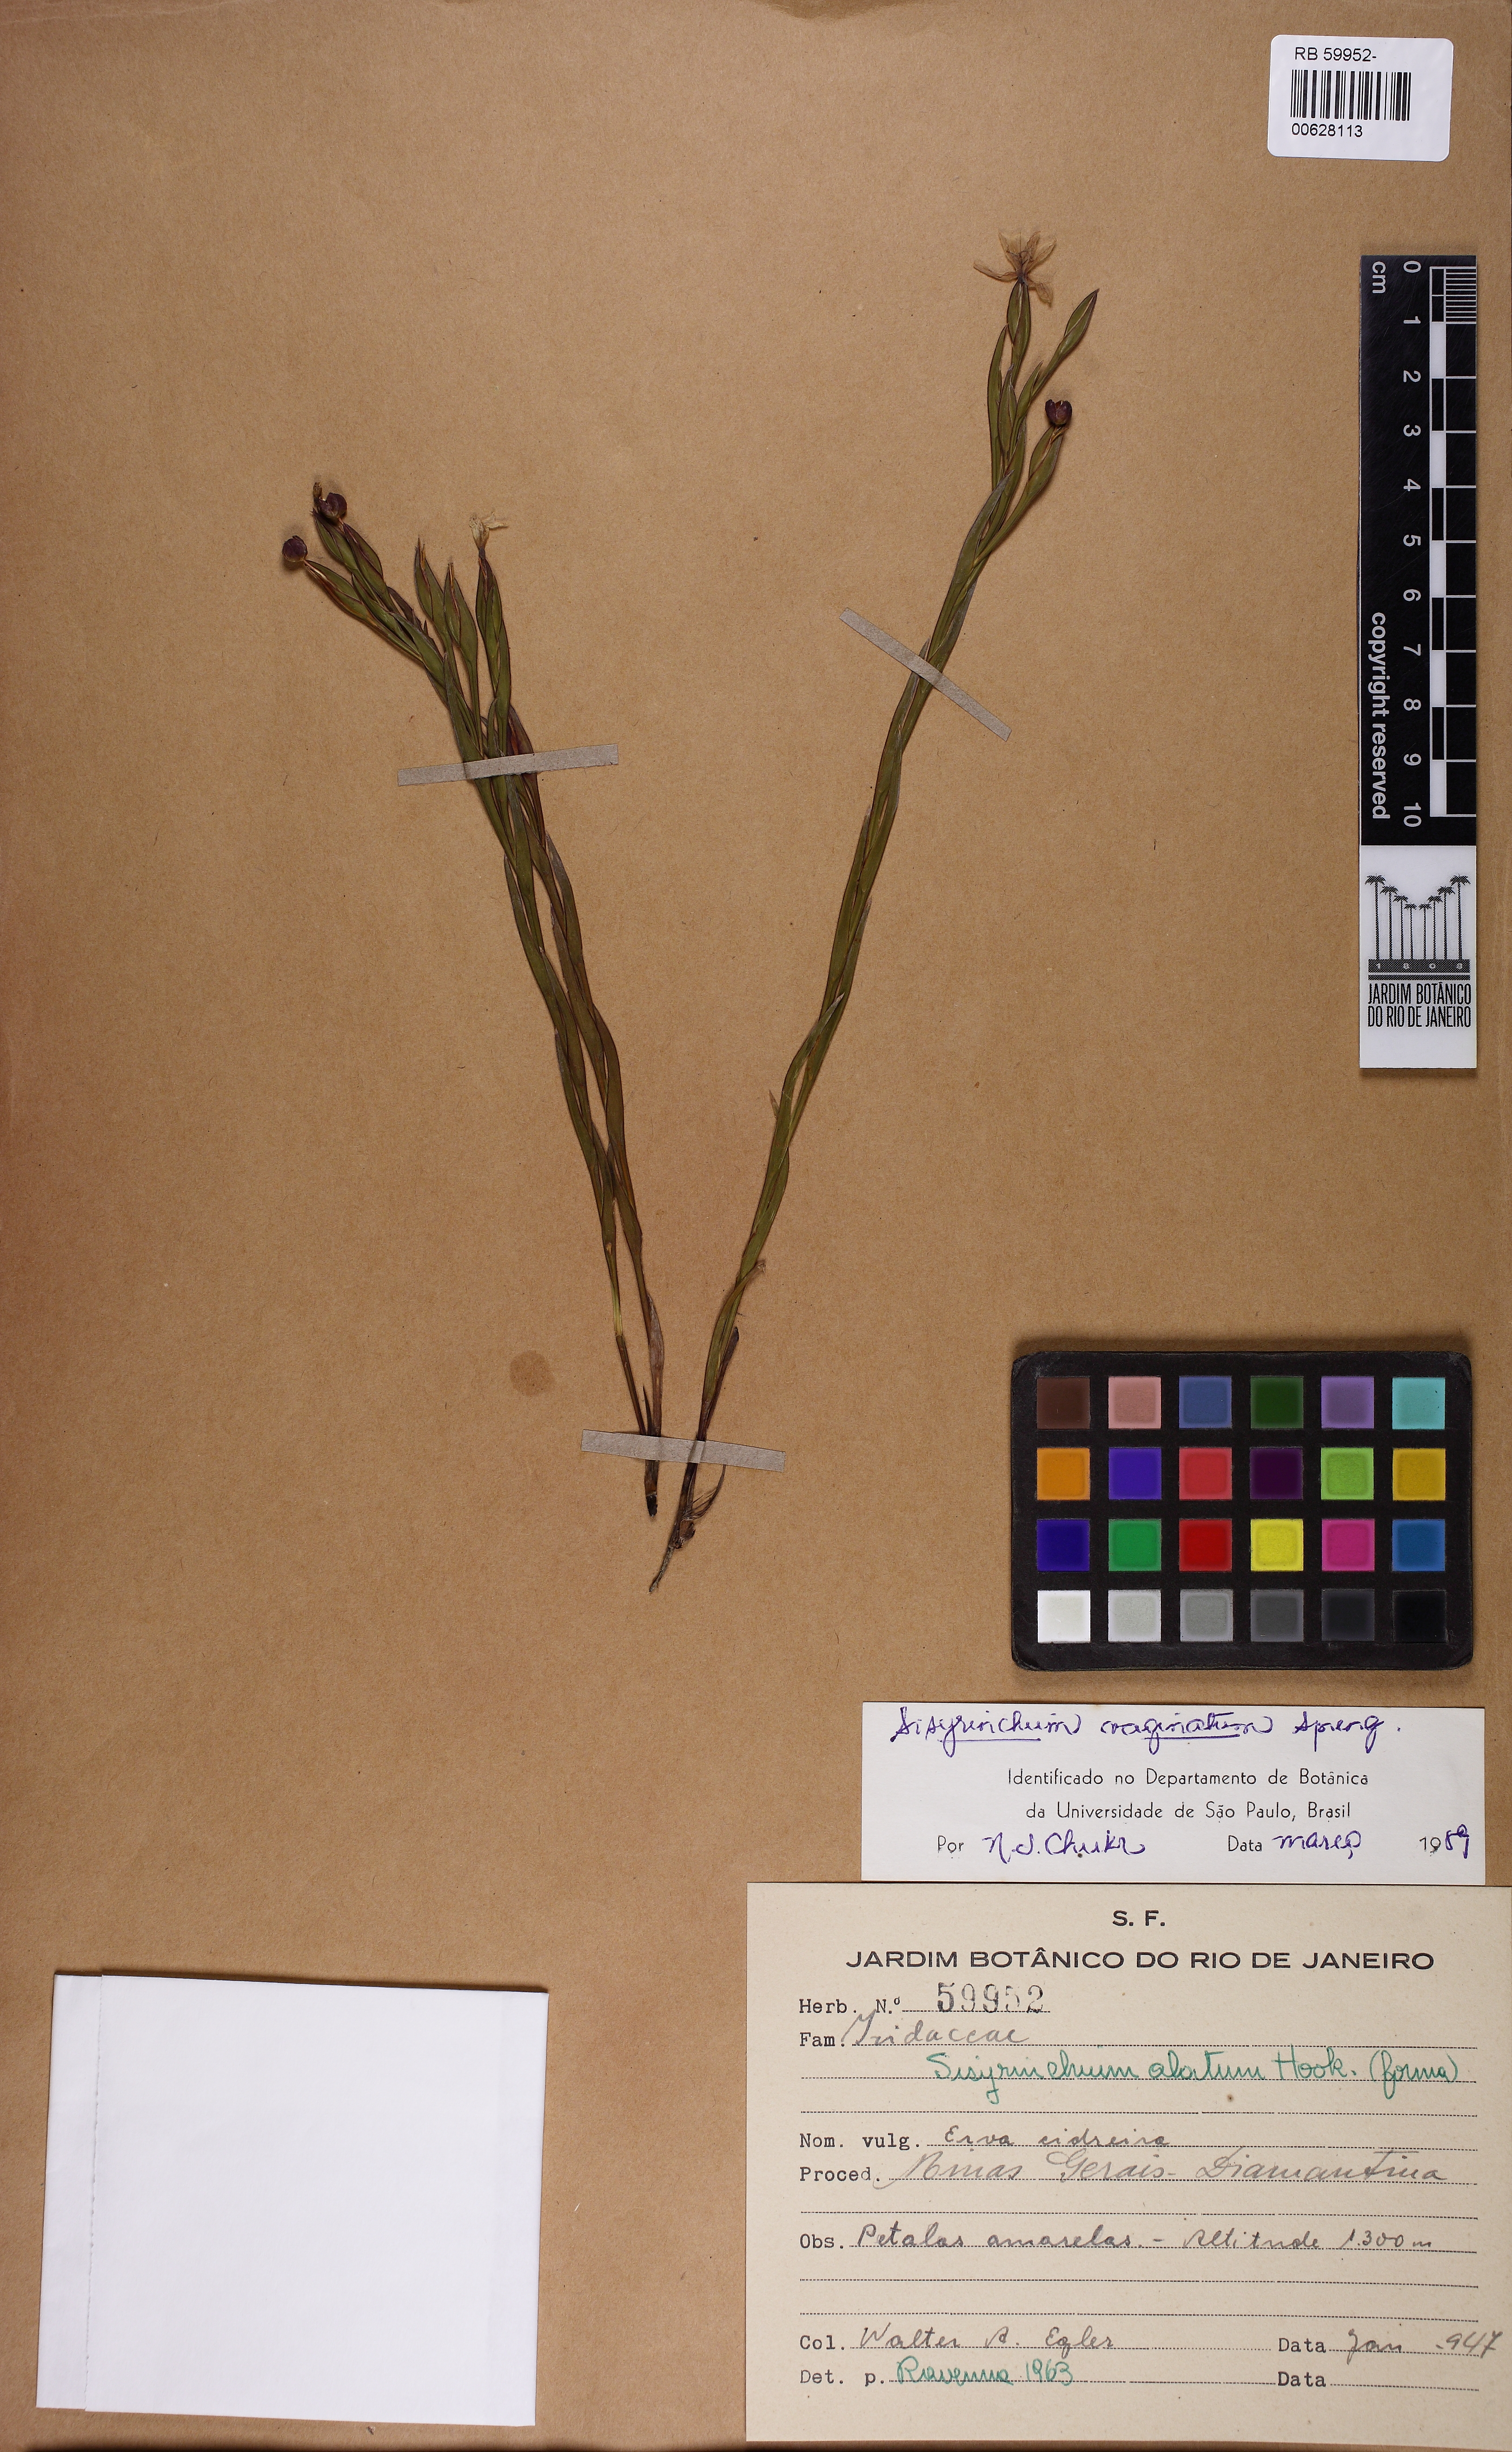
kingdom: Plantae
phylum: Tracheophyta
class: Liliopsida
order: Asparagales
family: Iridaceae
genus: Sisyrinchium
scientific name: Sisyrinchium vaginatum
